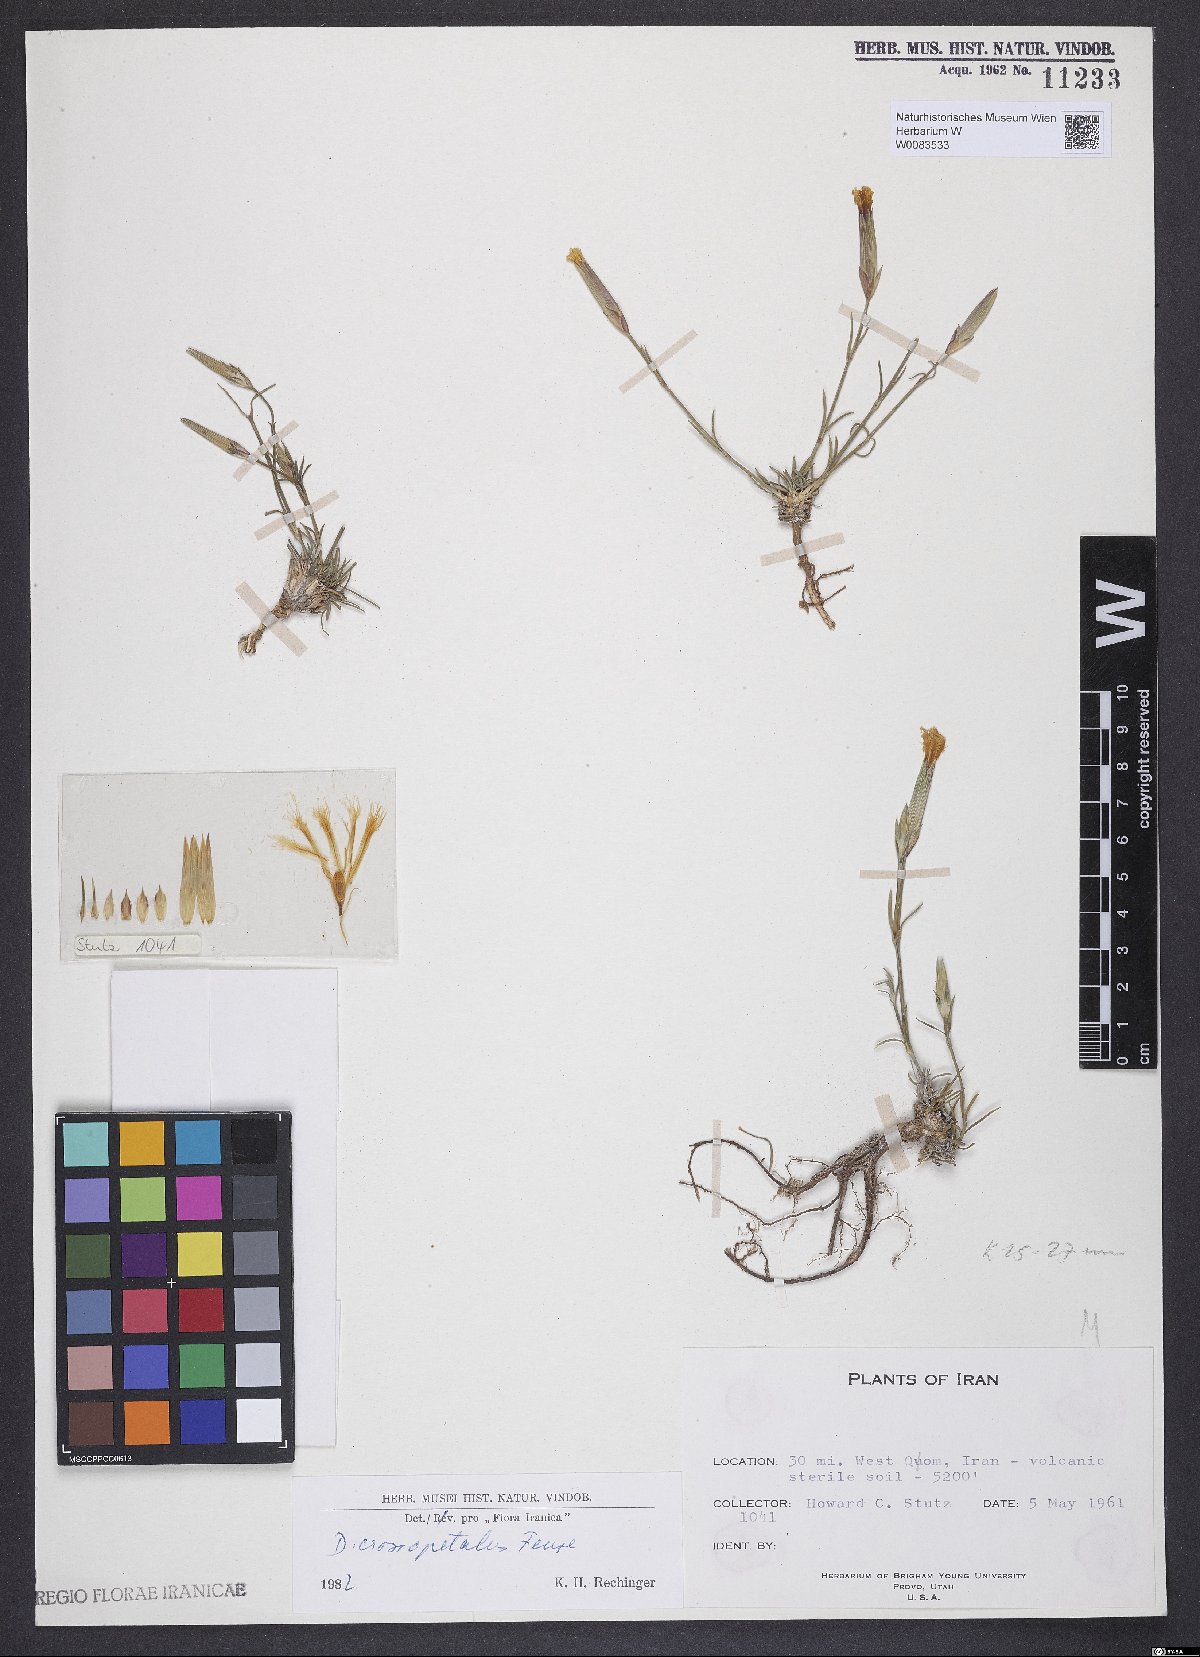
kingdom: Plantae
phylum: Tracheophyta
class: Magnoliopsida
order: Caryophyllales
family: Caryophyllaceae
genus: Dianthus
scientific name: Dianthus crossopetalus
